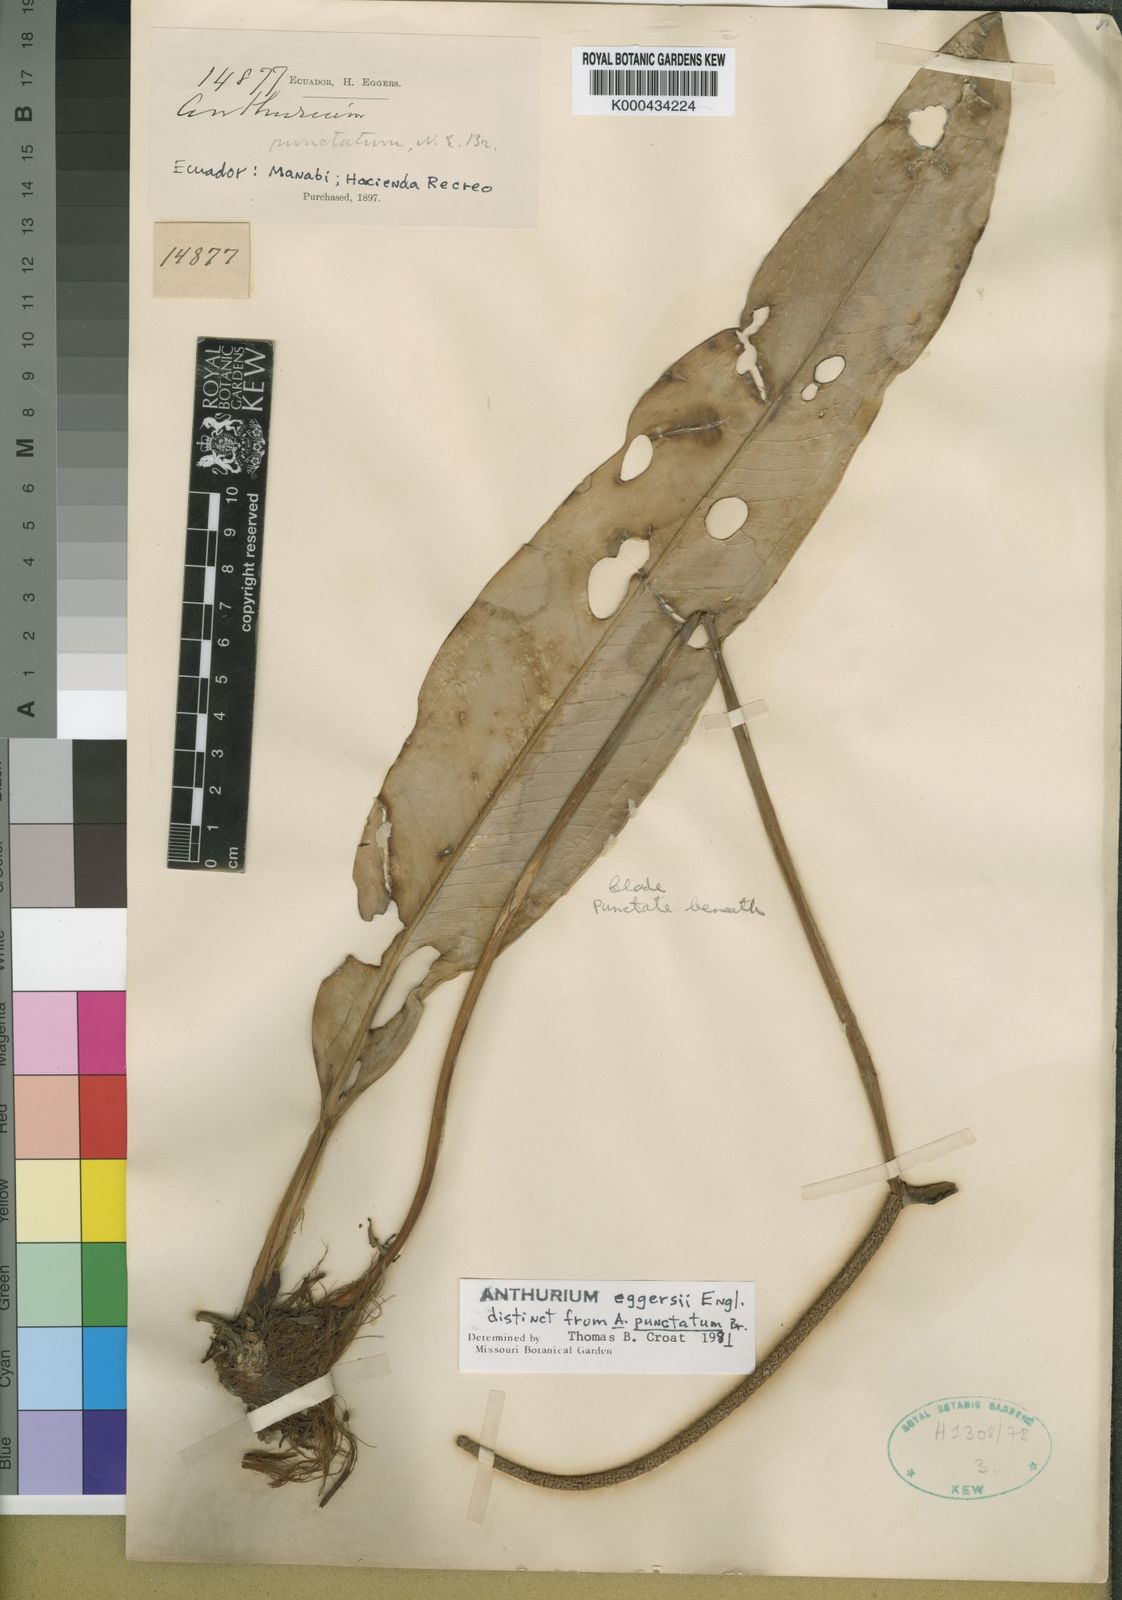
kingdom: Plantae
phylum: Tracheophyta
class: Liliopsida
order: Alismatales
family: Araceae
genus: Anthurium
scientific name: Anthurium eggersii
